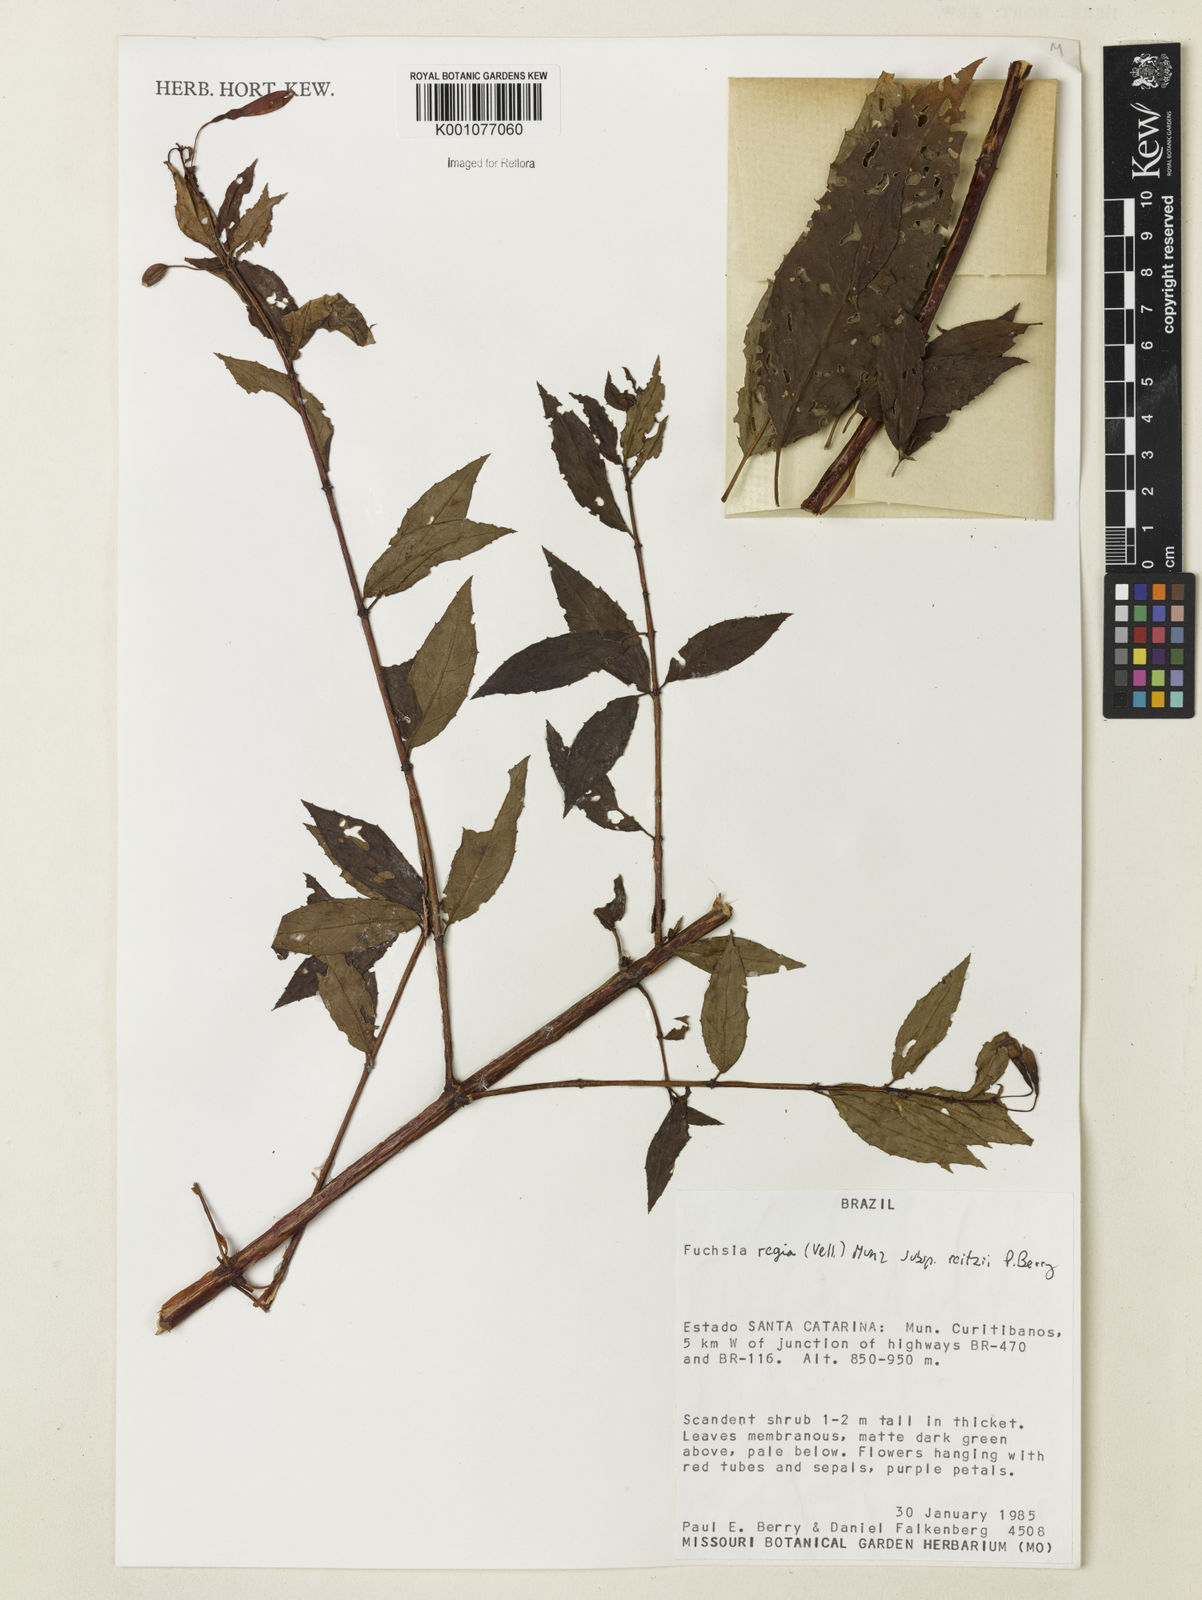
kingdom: Plantae
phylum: Tracheophyta
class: Magnoliopsida
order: Myrtales
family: Onagraceae
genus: Fuchsia
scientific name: Fuchsia regia
